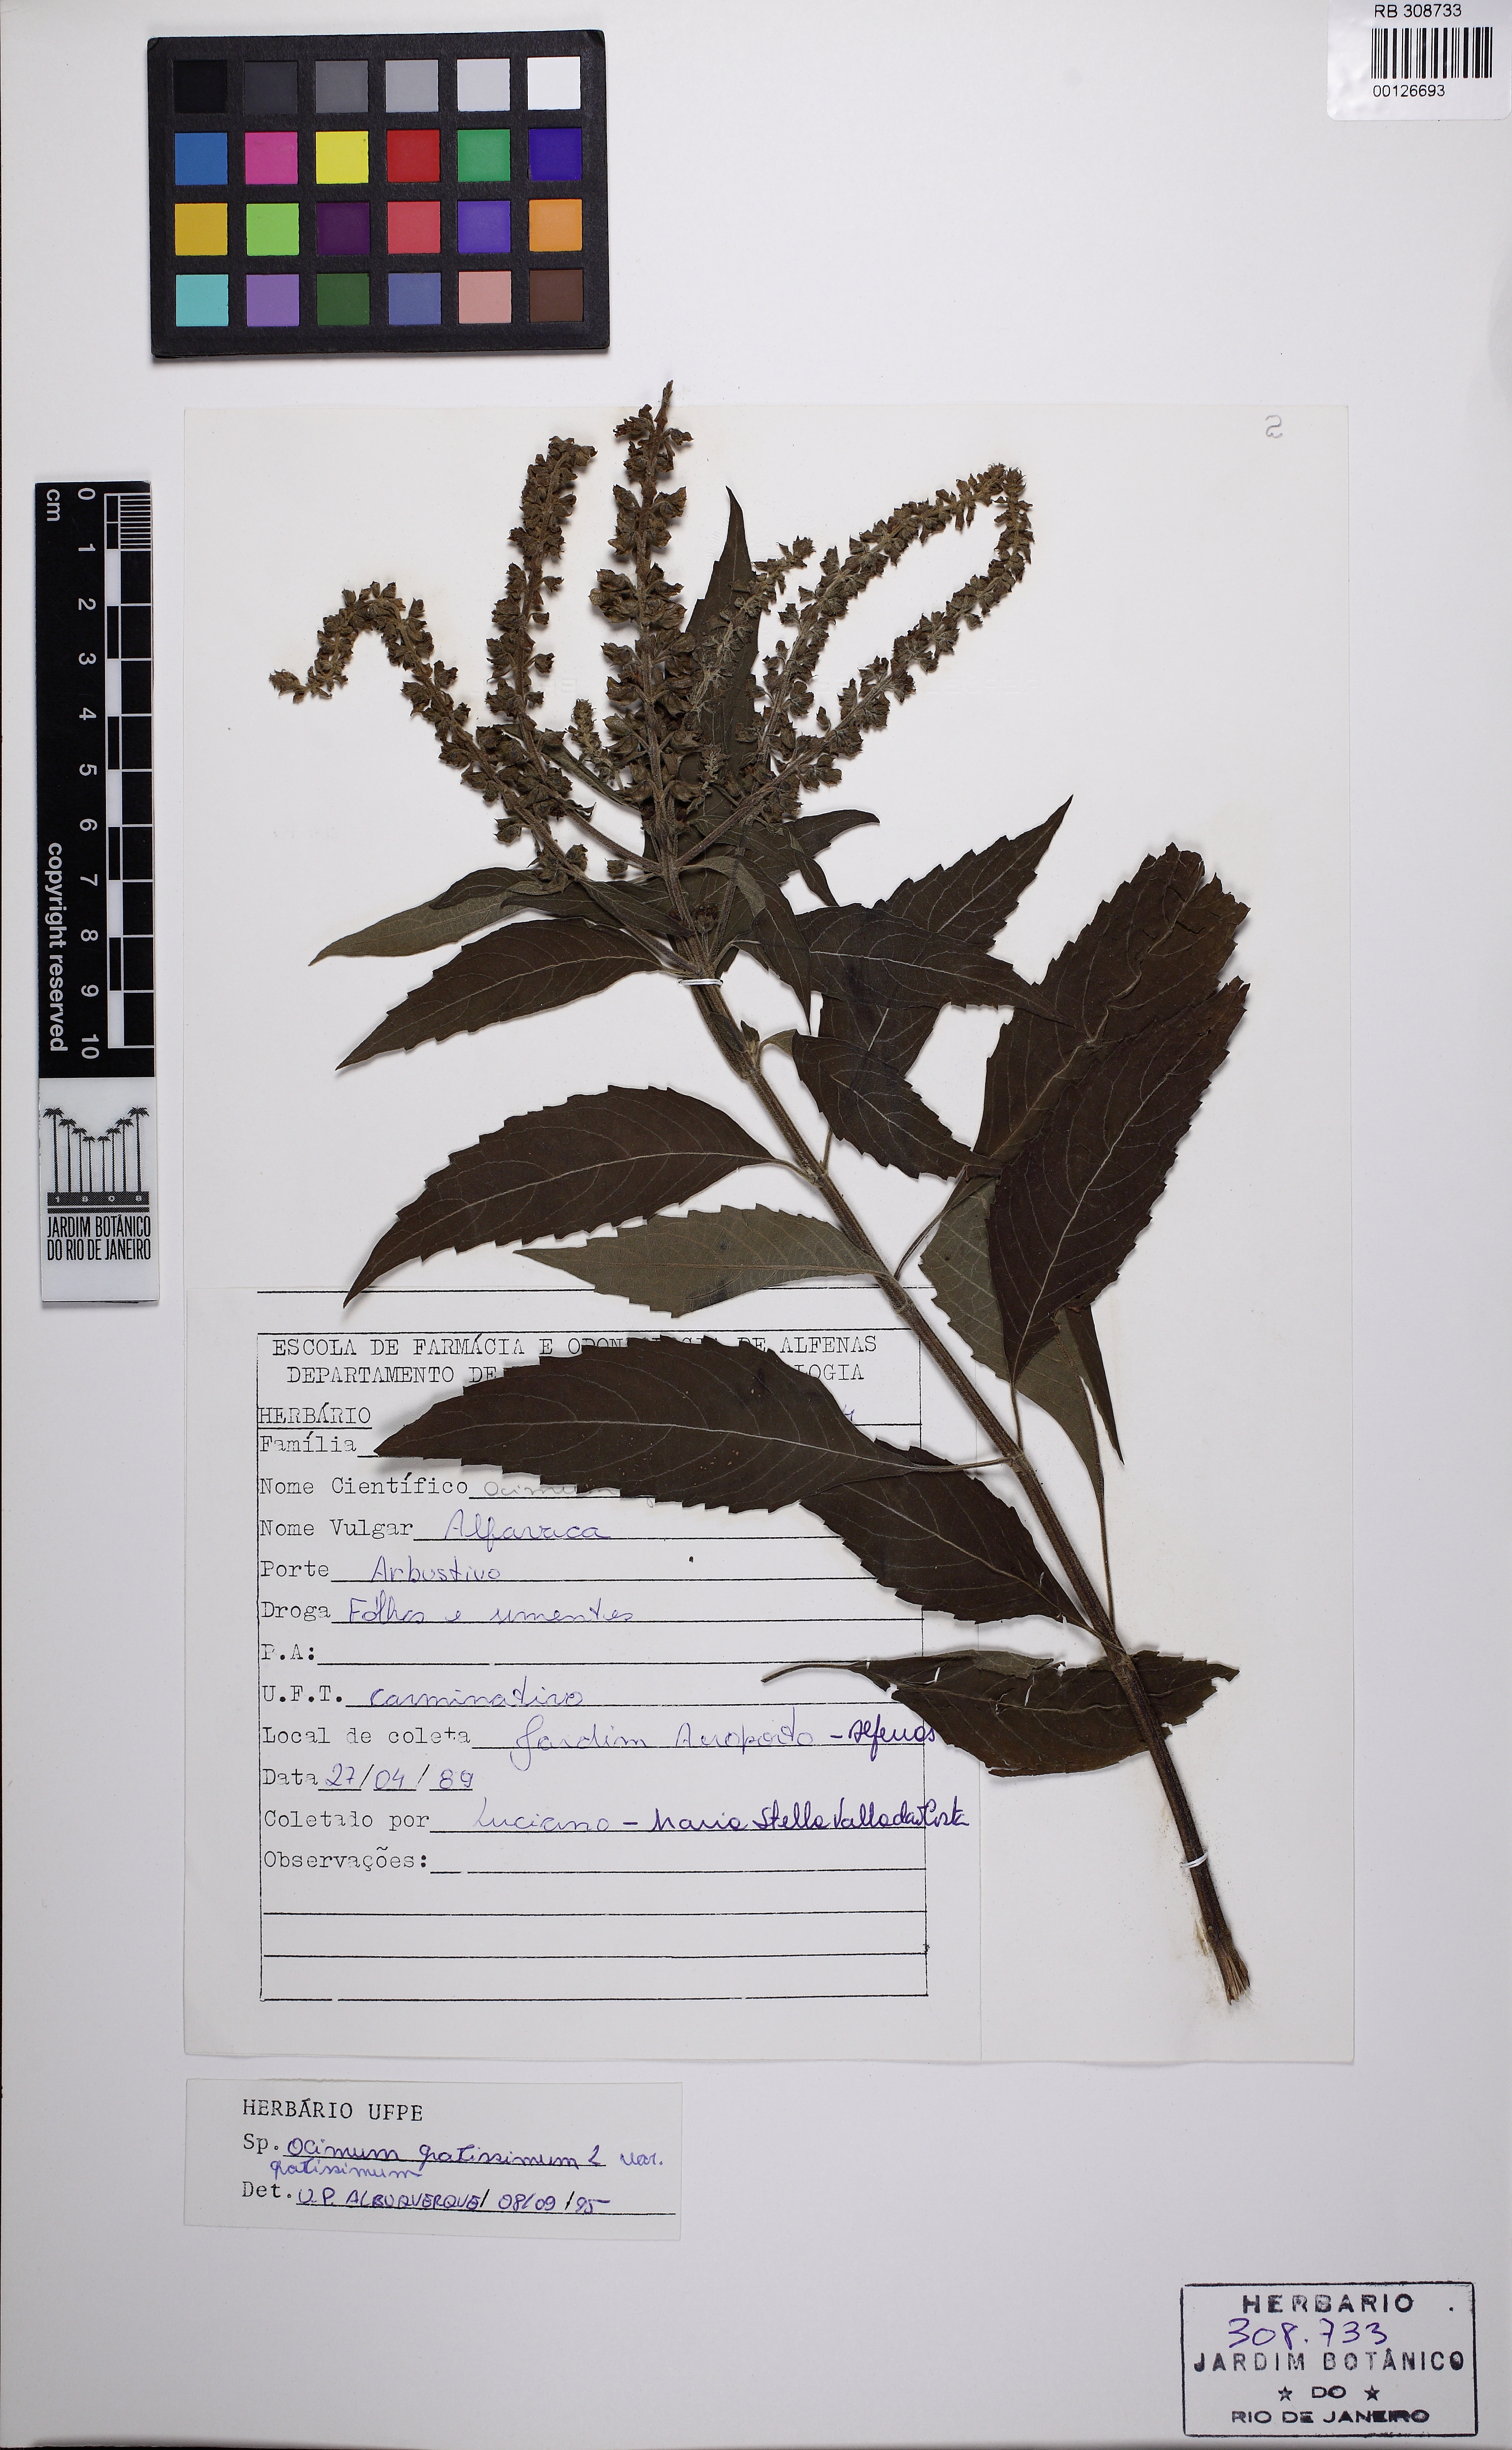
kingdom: Plantae
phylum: Tracheophyta
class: Magnoliopsida
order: Lamiales
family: Lamiaceae
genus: Ocimum
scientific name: Ocimum gratissimum
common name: African basil
